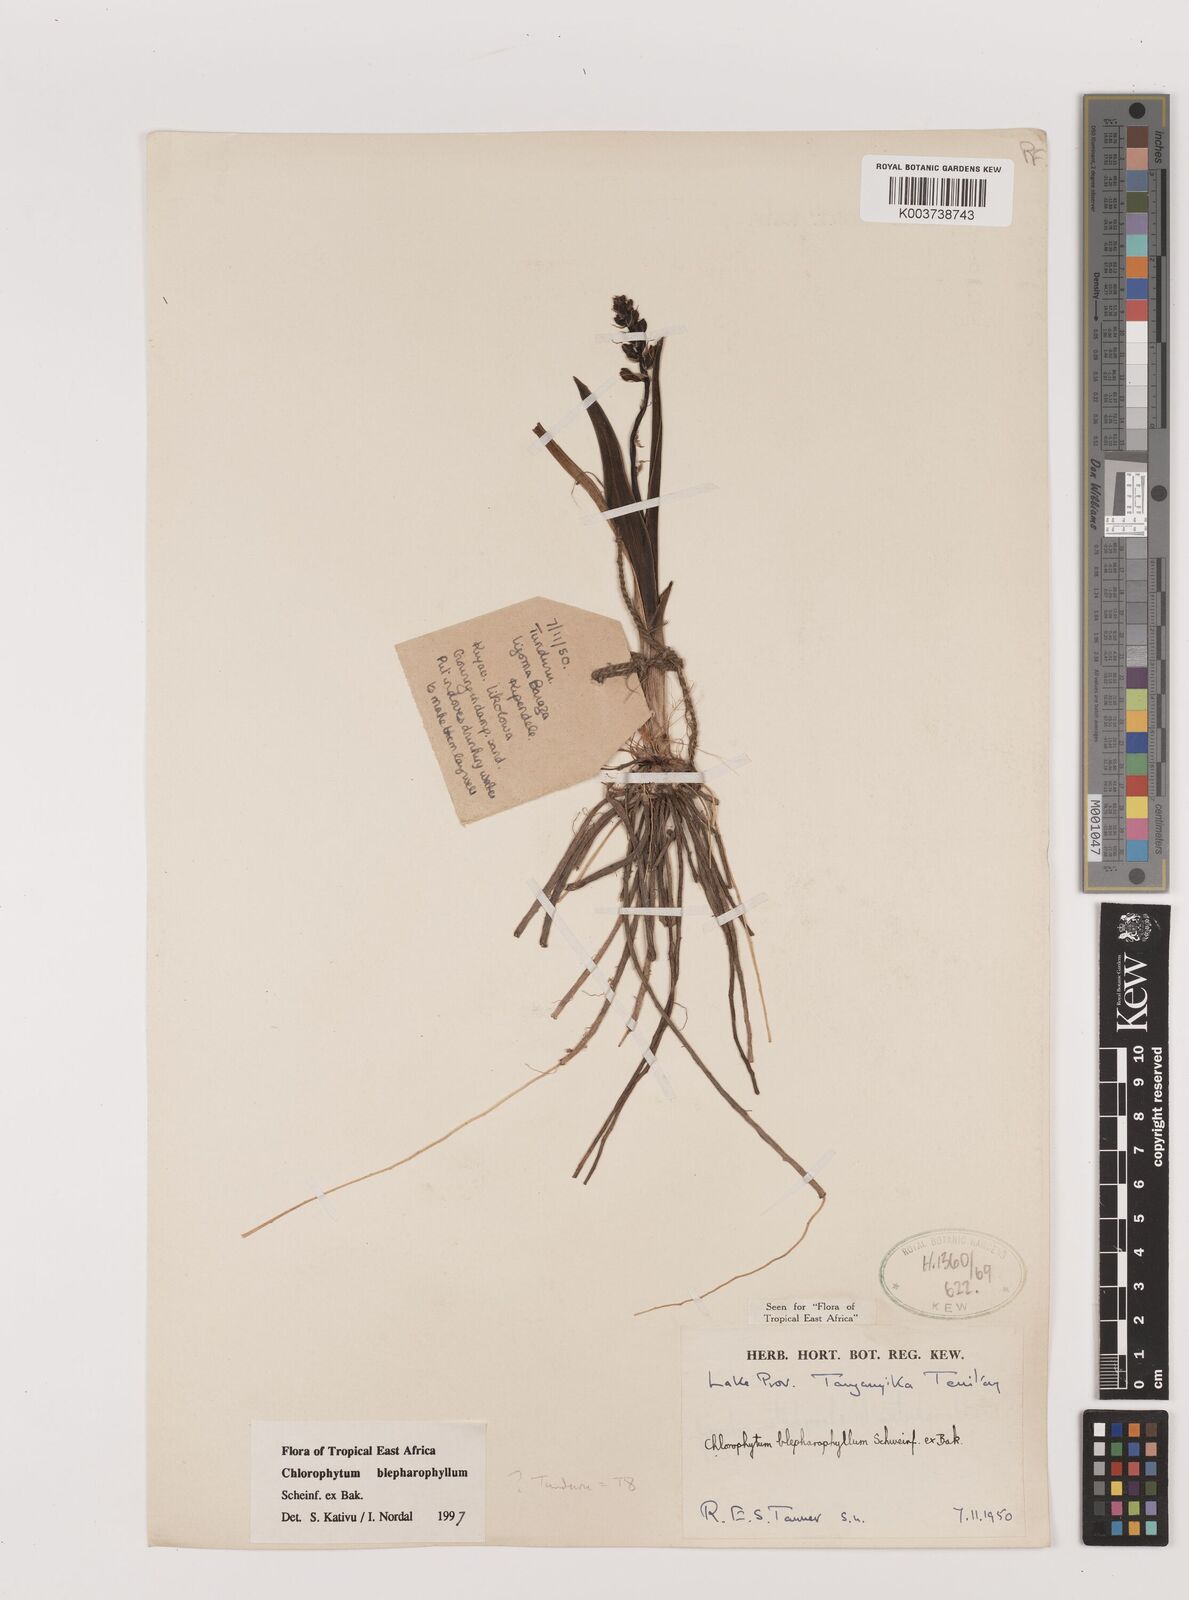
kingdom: Plantae
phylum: Tracheophyta
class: Liliopsida
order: Asparagales
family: Asparagaceae
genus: Chlorophytum
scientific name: Chlorophytum blepharophyllum
